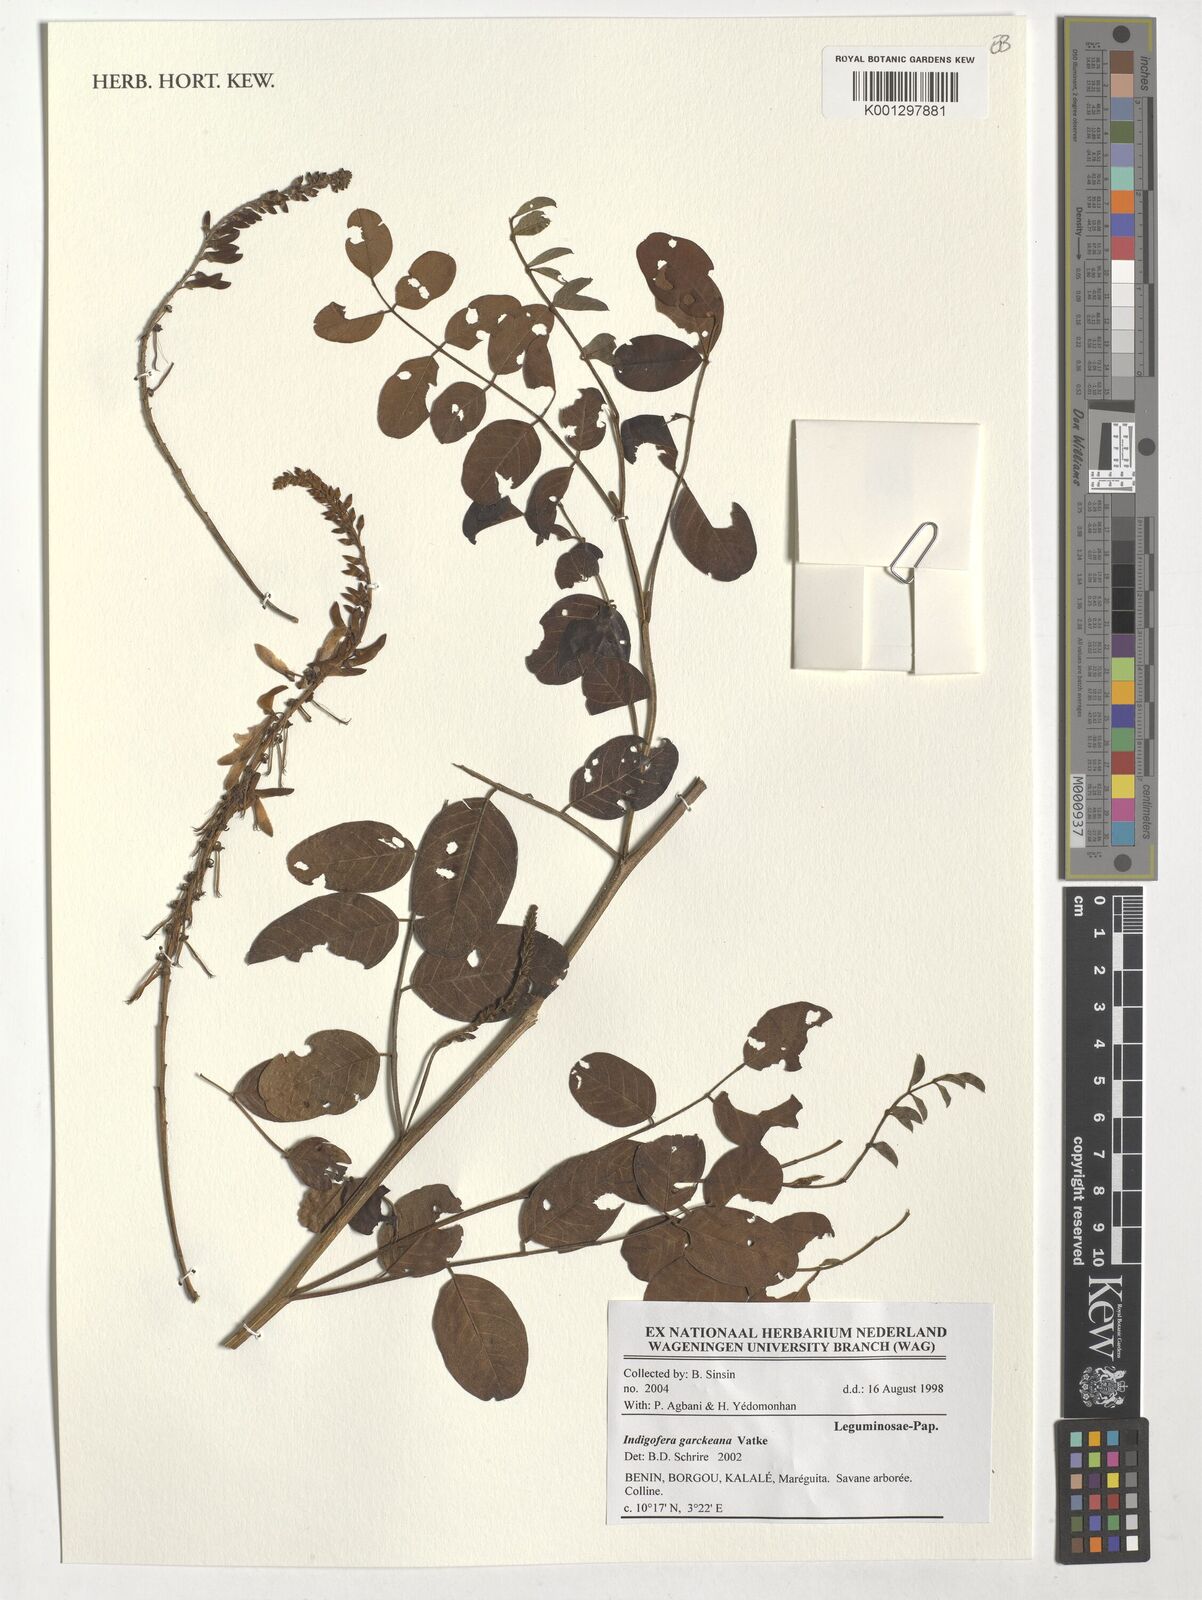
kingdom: Plantae
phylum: Tracheophyta
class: Magnoliopsida
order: Fabales
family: Fabaceae
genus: Indigofera
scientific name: Indigofera garckeana
